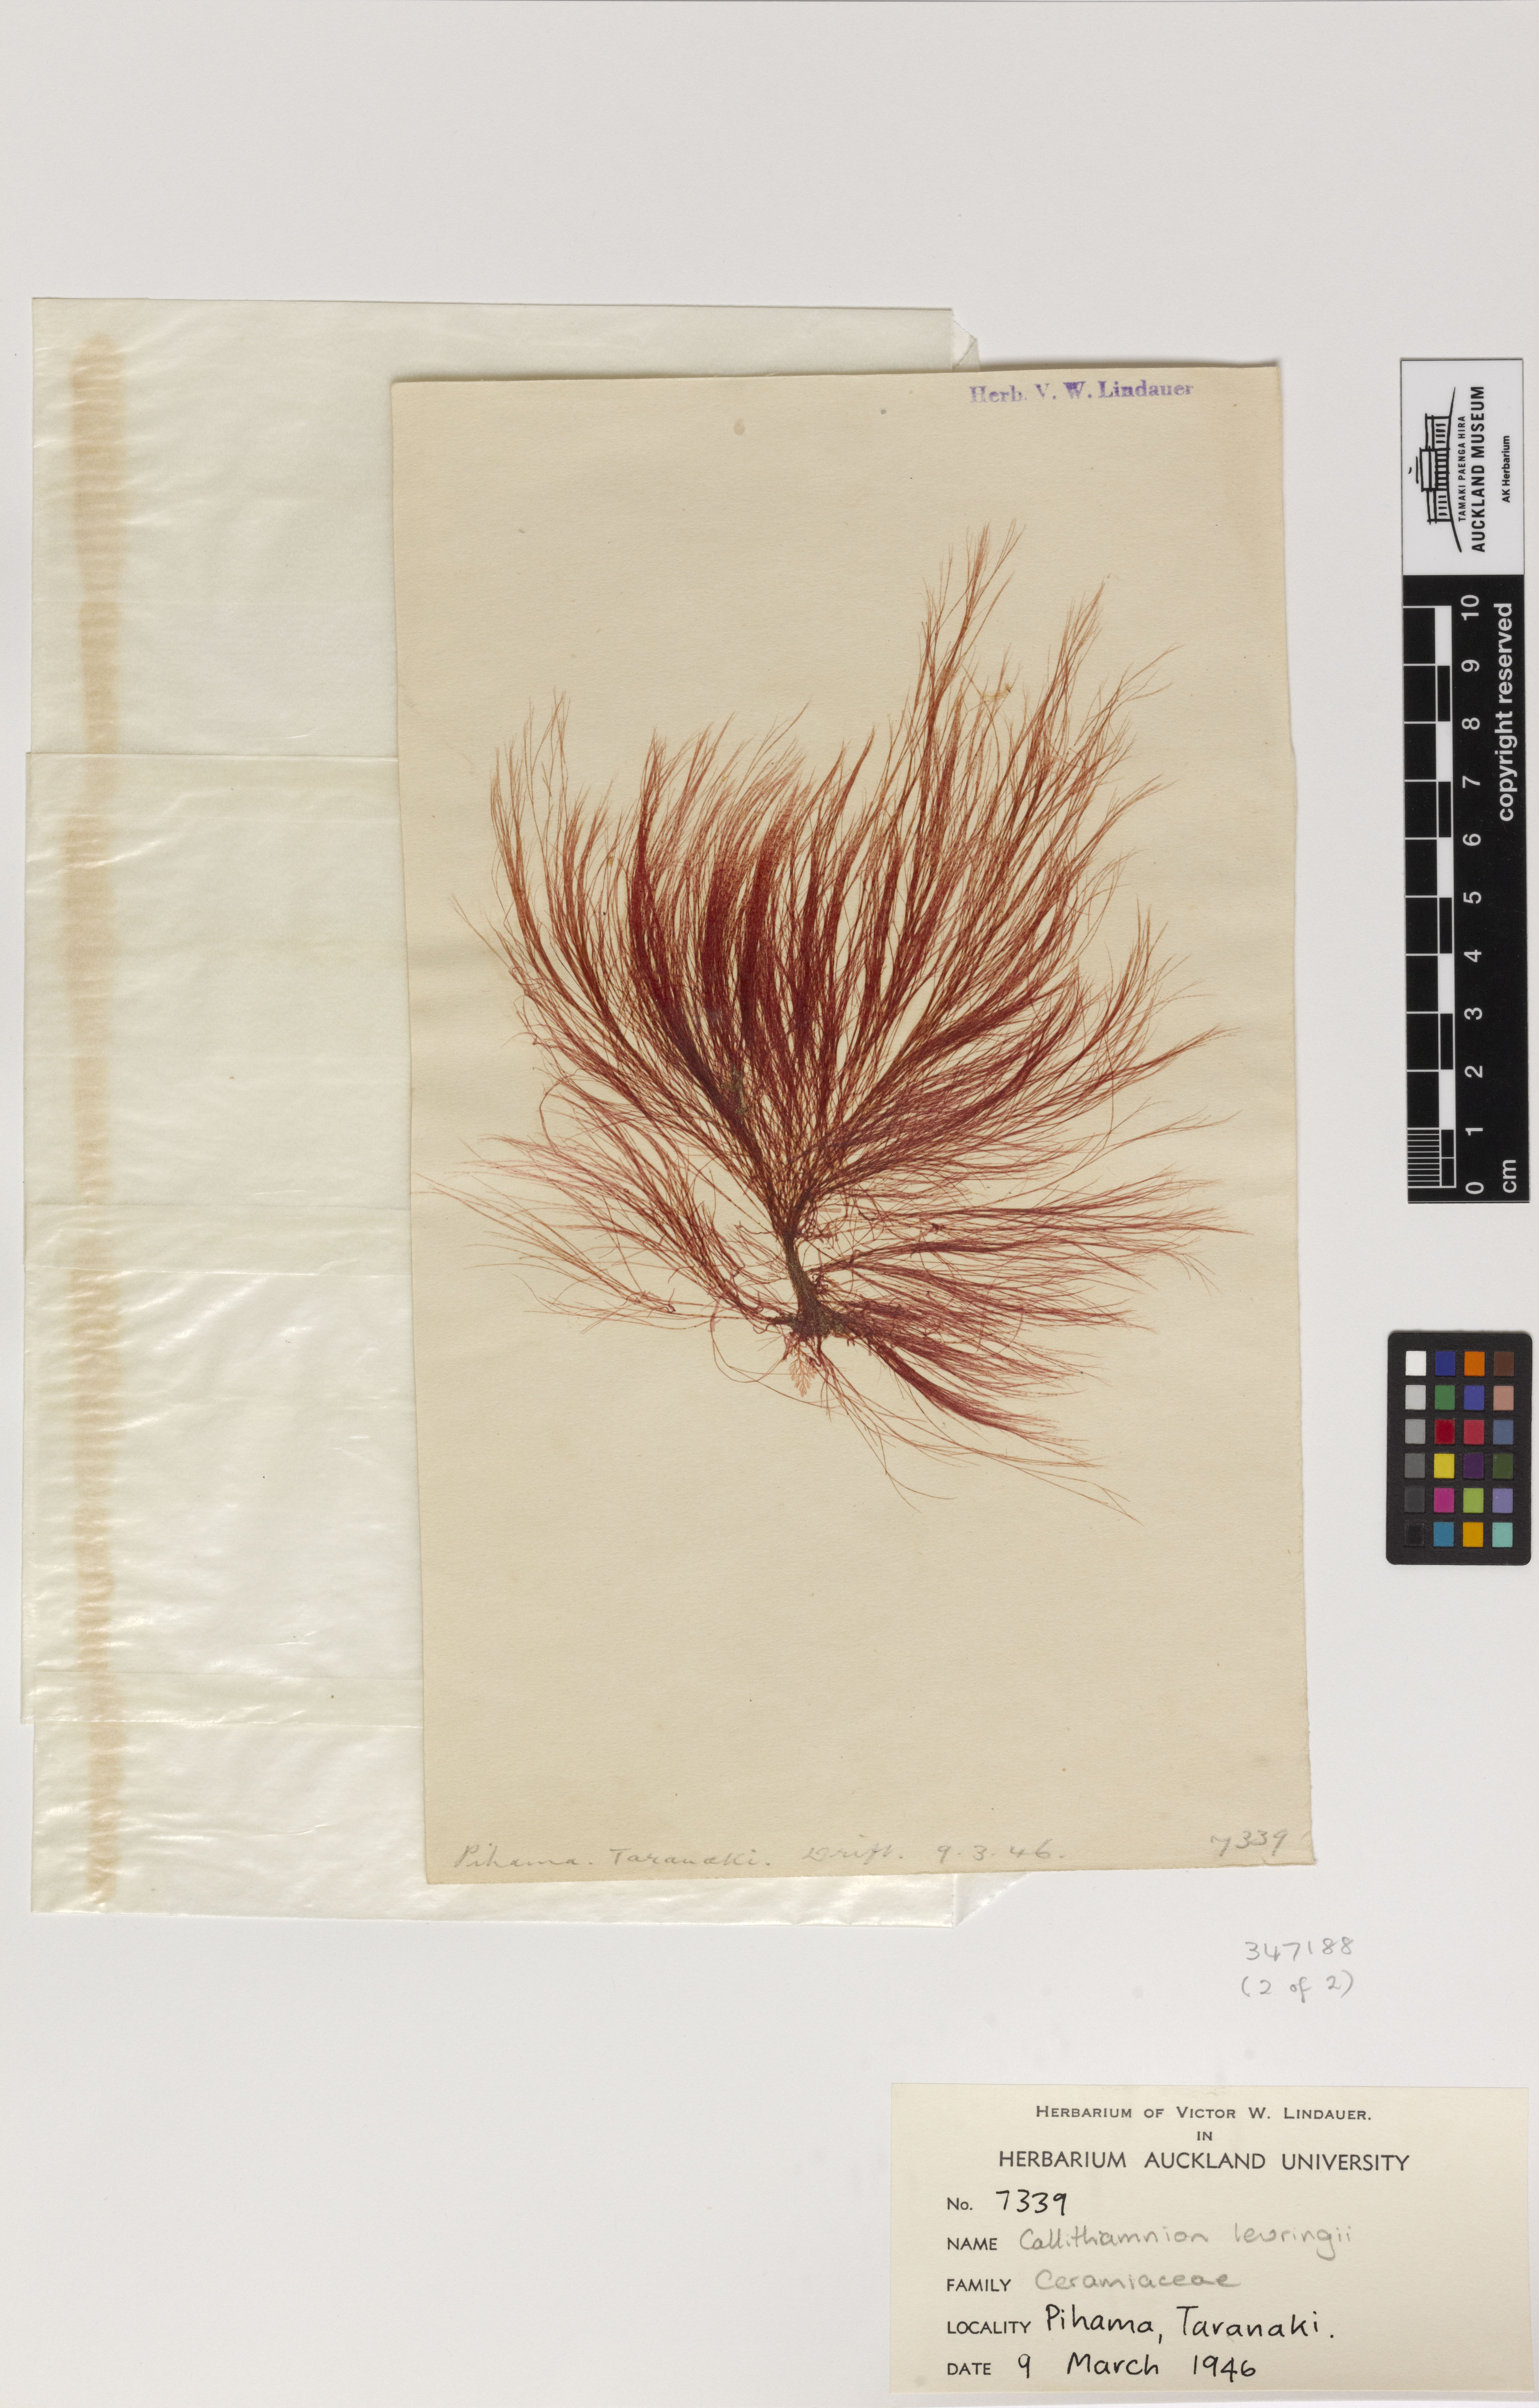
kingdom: Plantae
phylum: Rhodophyta
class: Florideophyceae
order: Ceramiales
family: Wrangeliaceae
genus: Deucalion
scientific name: Deucalion levringii
